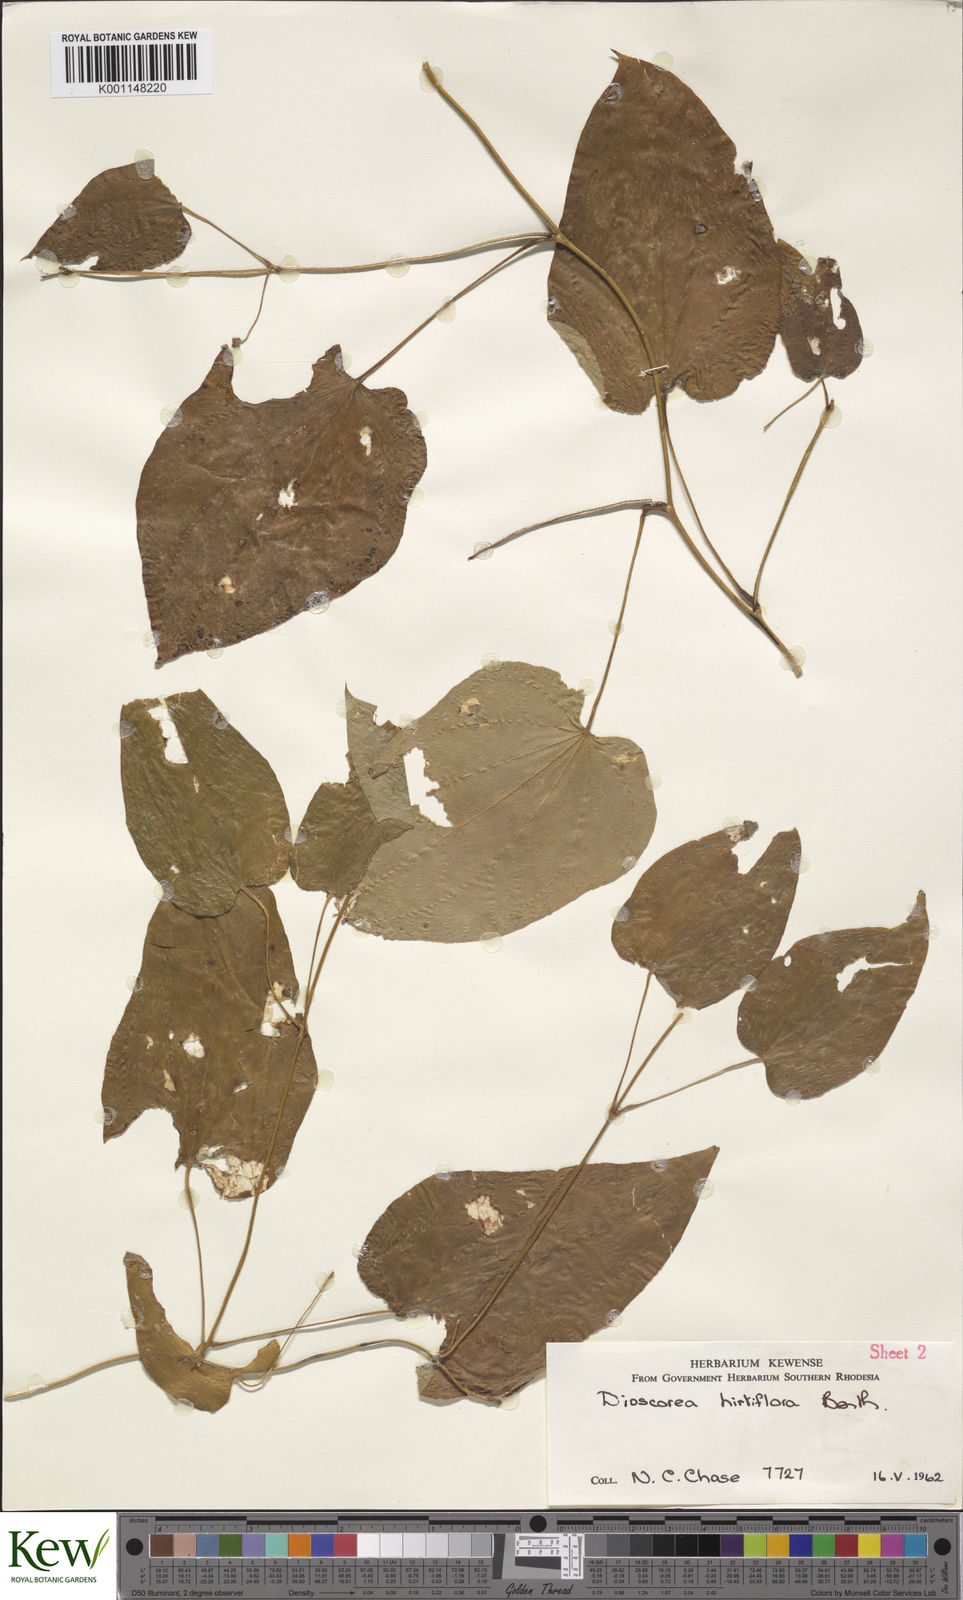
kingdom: Plantae
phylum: Tracheophyta
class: Liliopsida
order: Dioscoreales
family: Dioscoreaceae
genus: Dioscorea
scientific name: Dioscorea hirtiflora
